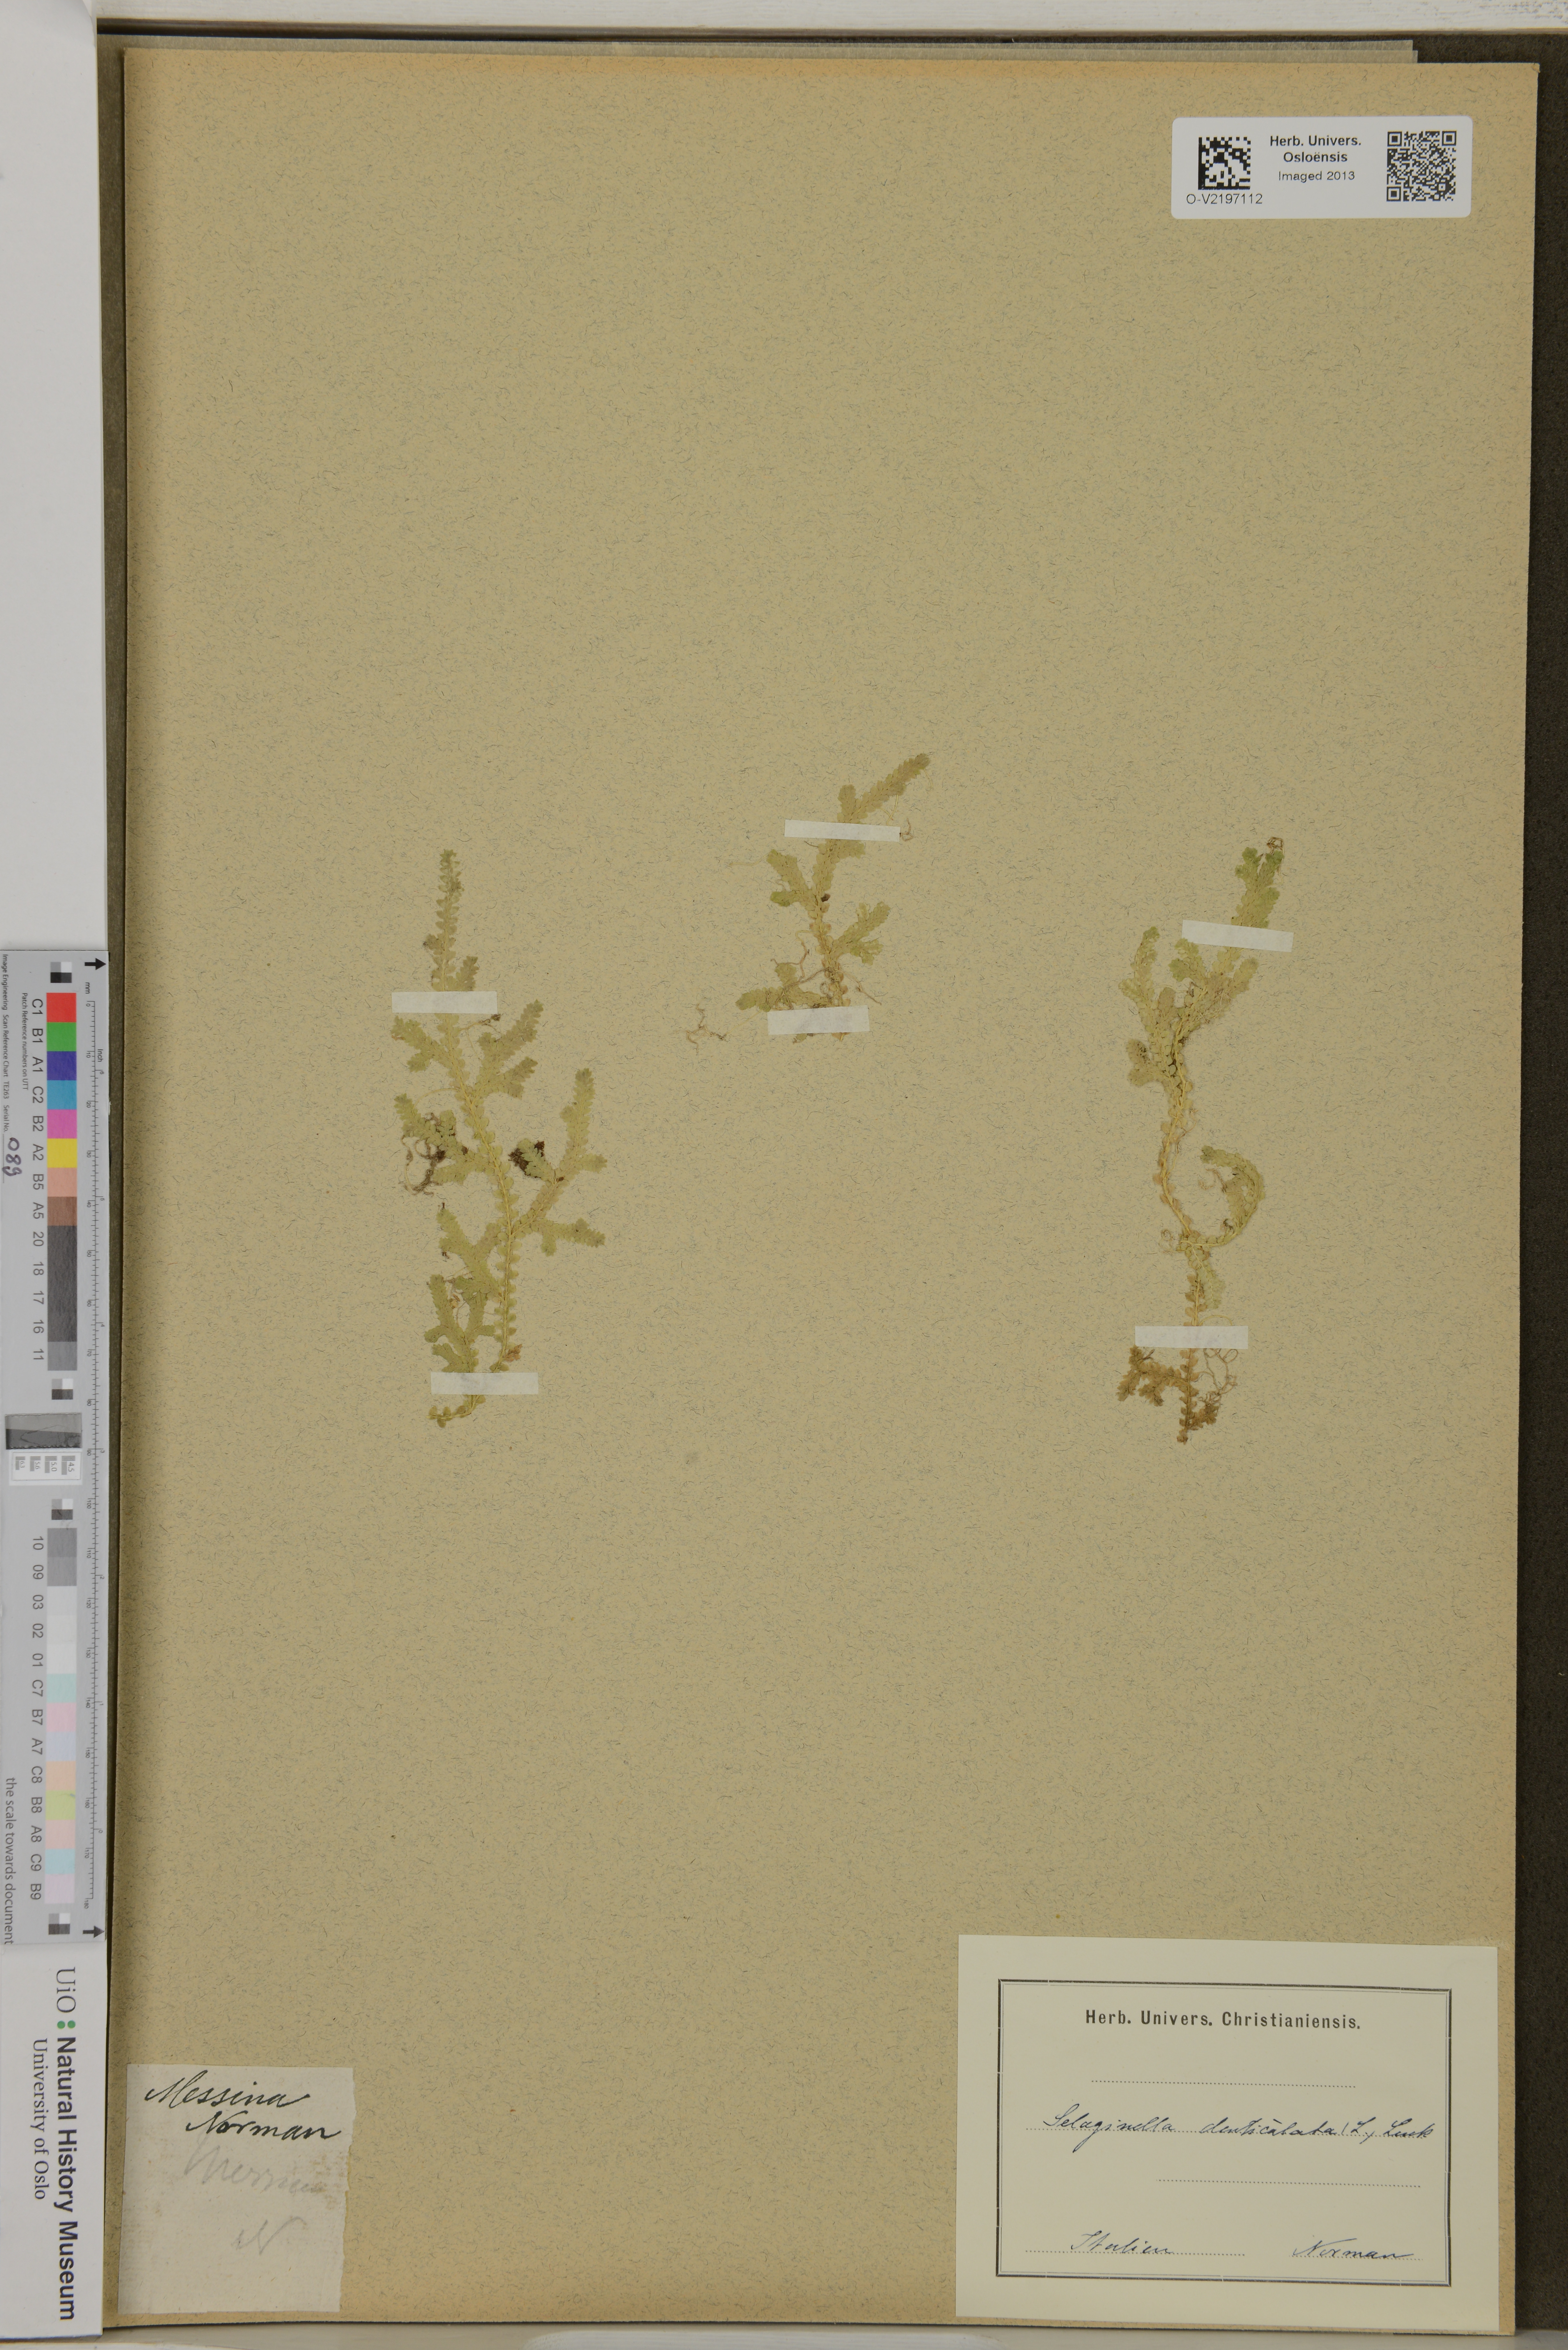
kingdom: Plantae
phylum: Tracheophyta
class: Lycopodiopsida
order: Selaginellales
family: Selaginellaceae
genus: Selaginella
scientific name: Selaginella denticulata
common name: Toothed-leaved clubmoss
